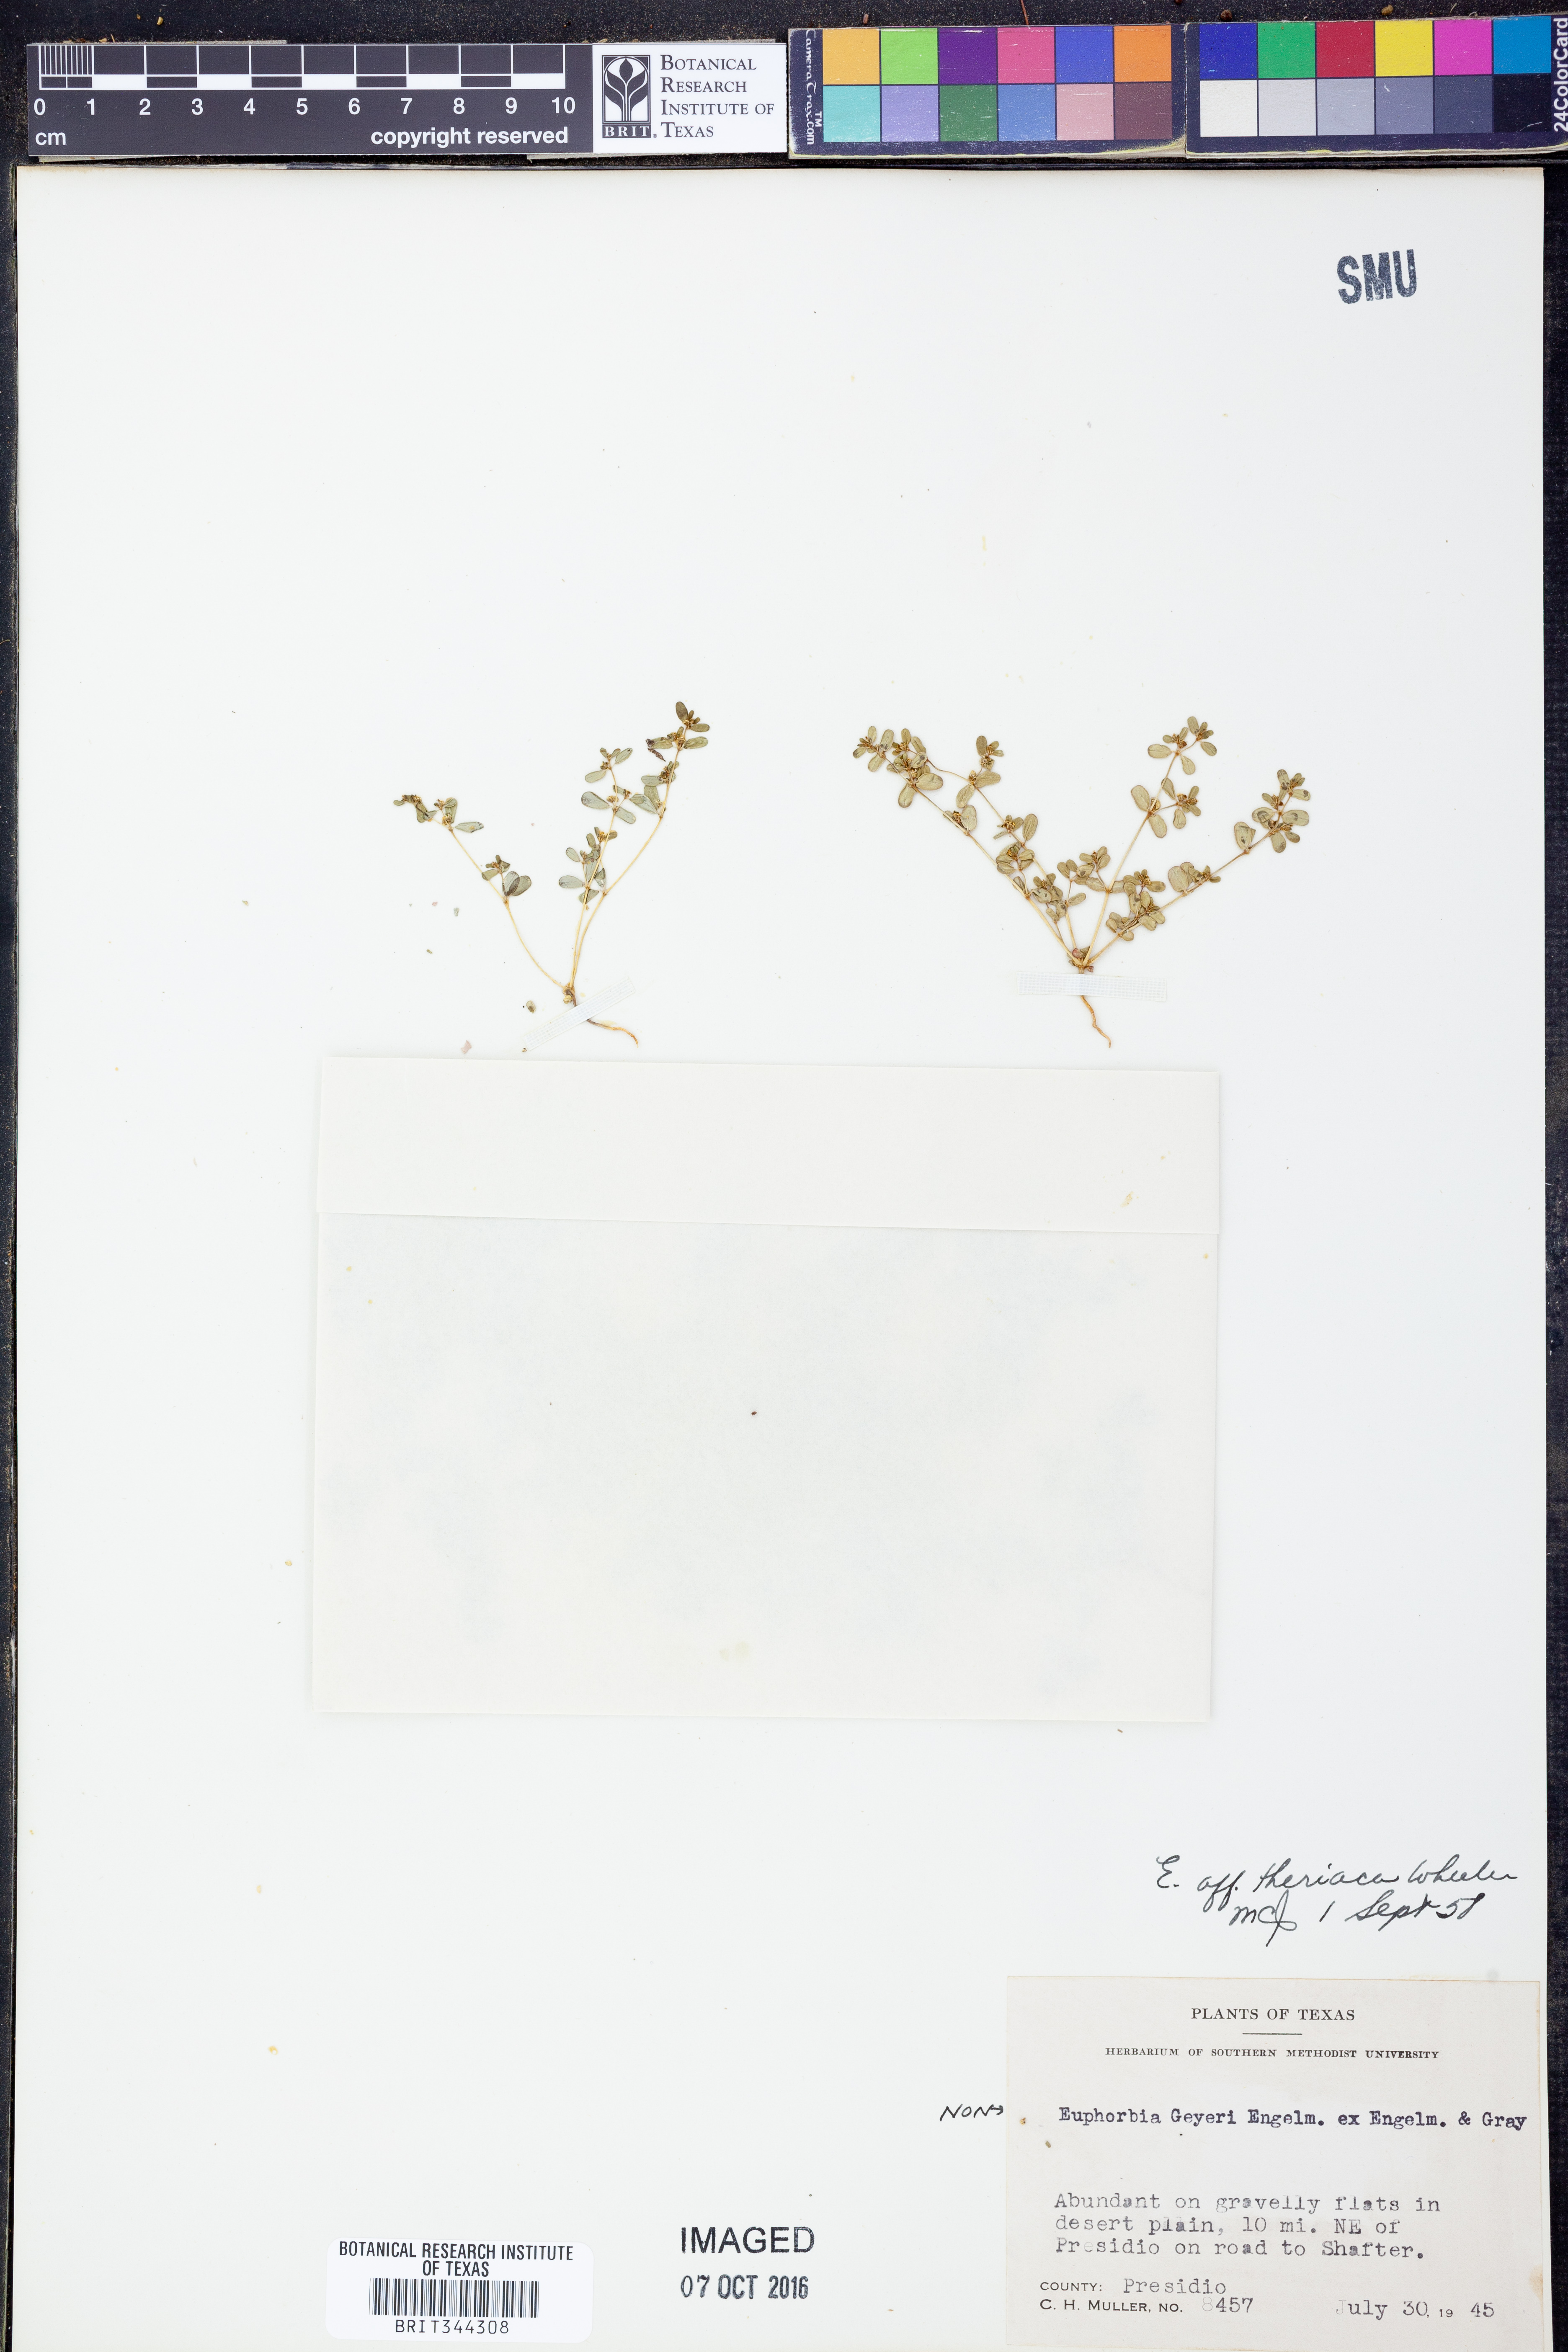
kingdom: Plantae
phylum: Tracheophyta
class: Magnoliopsida
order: Malpighiales
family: Euphorbiaceae
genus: Euphorbia
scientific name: Euphorbia spurca
